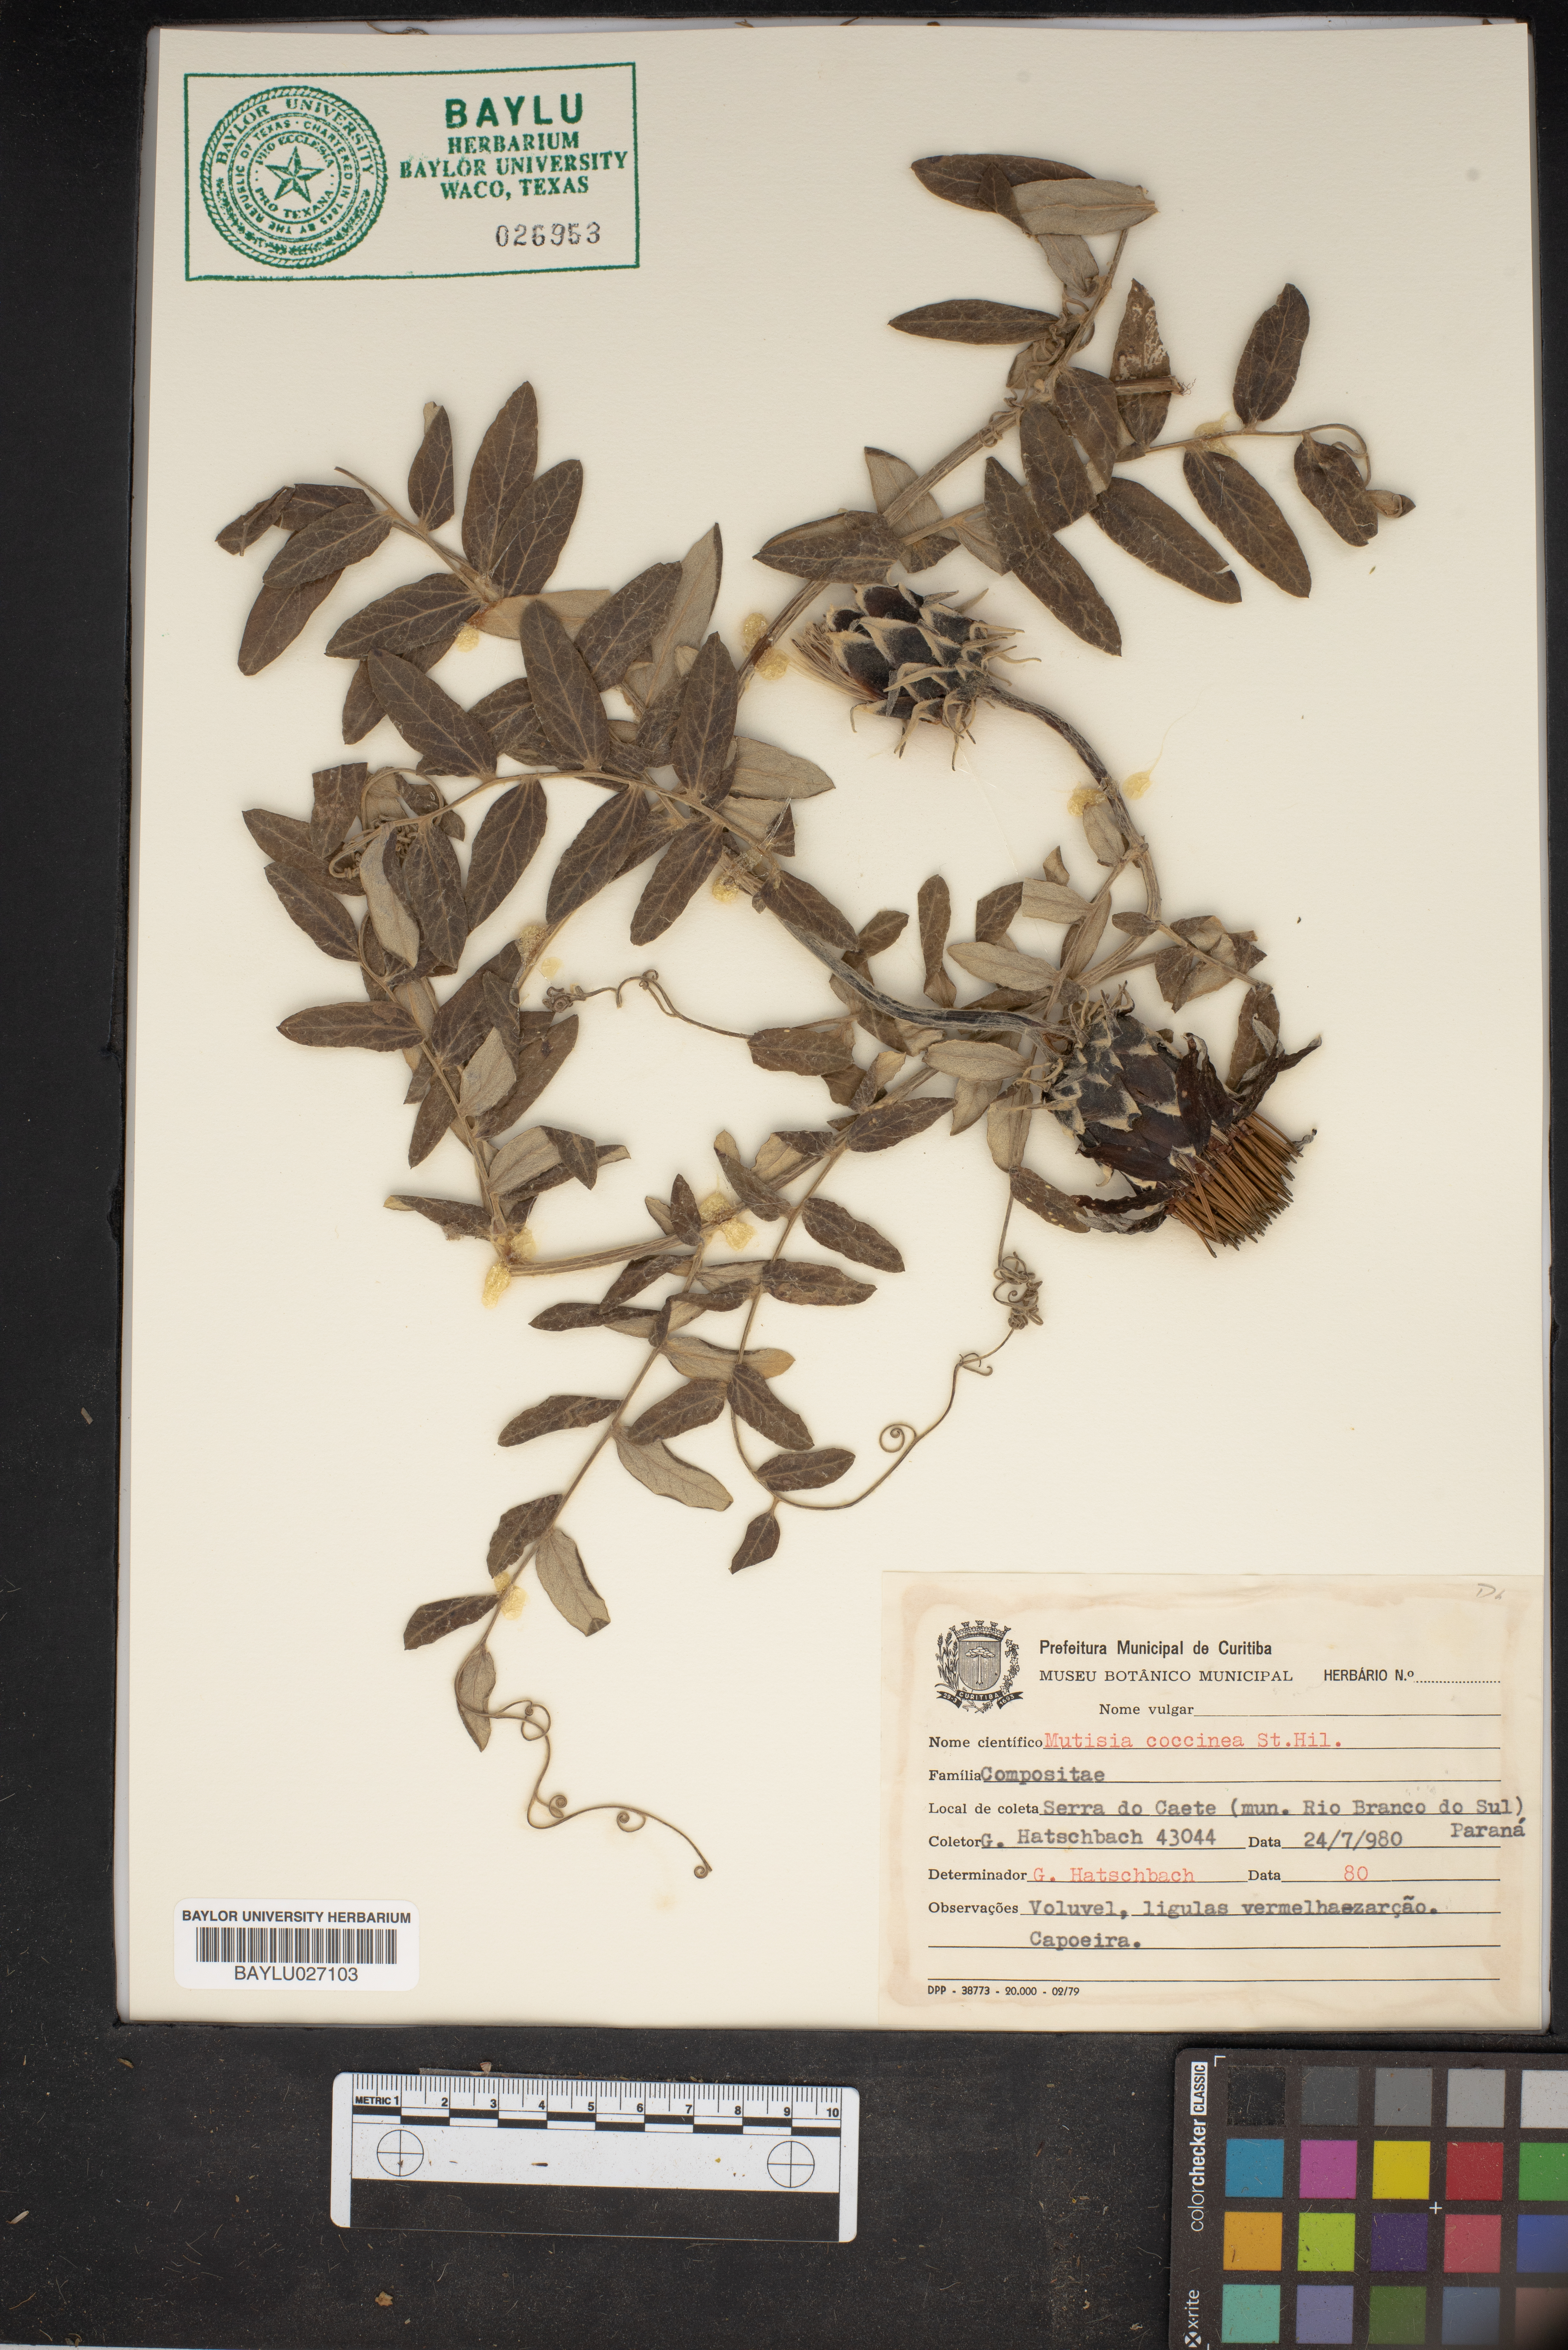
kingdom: Plantae
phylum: Tracheophyta
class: Magnoliopsida
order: Asterales
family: Asteraceae
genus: Mutisia
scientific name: Mutisia coccinea
